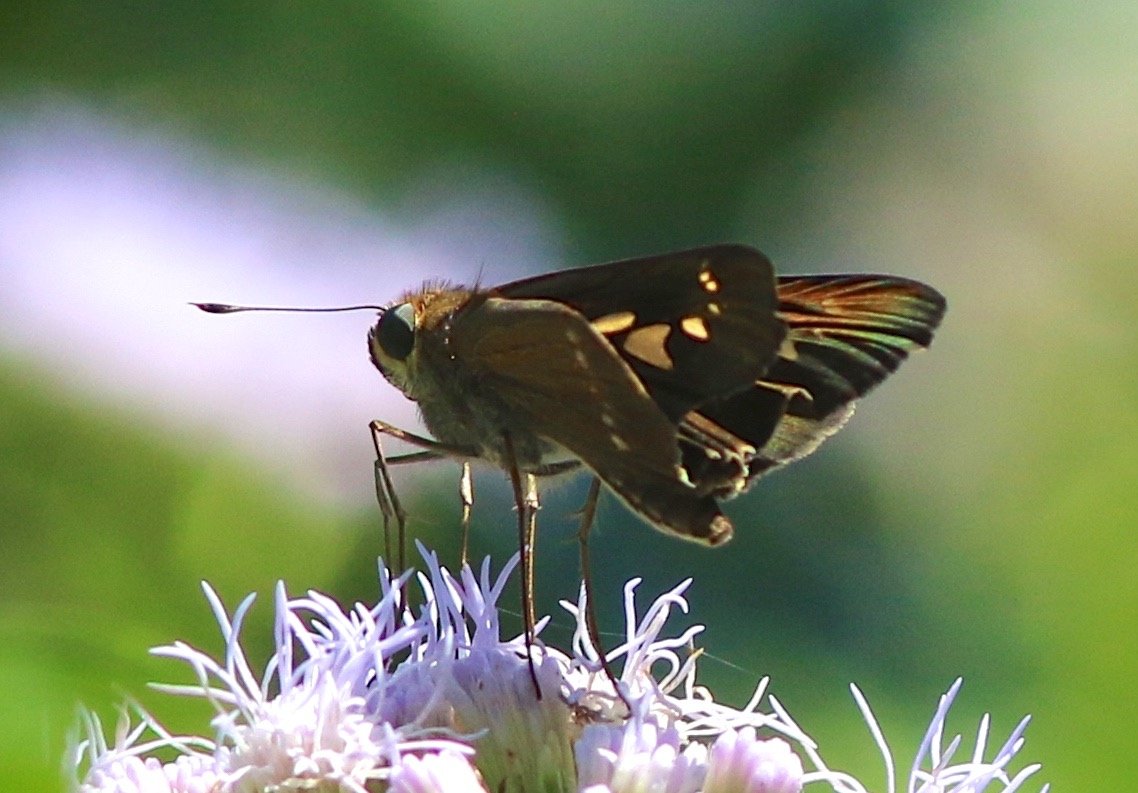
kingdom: Animalia
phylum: Arthropoda
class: Insecta
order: Lepidoptera
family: Hesperiidae
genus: Turesis
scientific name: Turesis lucas
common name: Purple-washed Skipper
